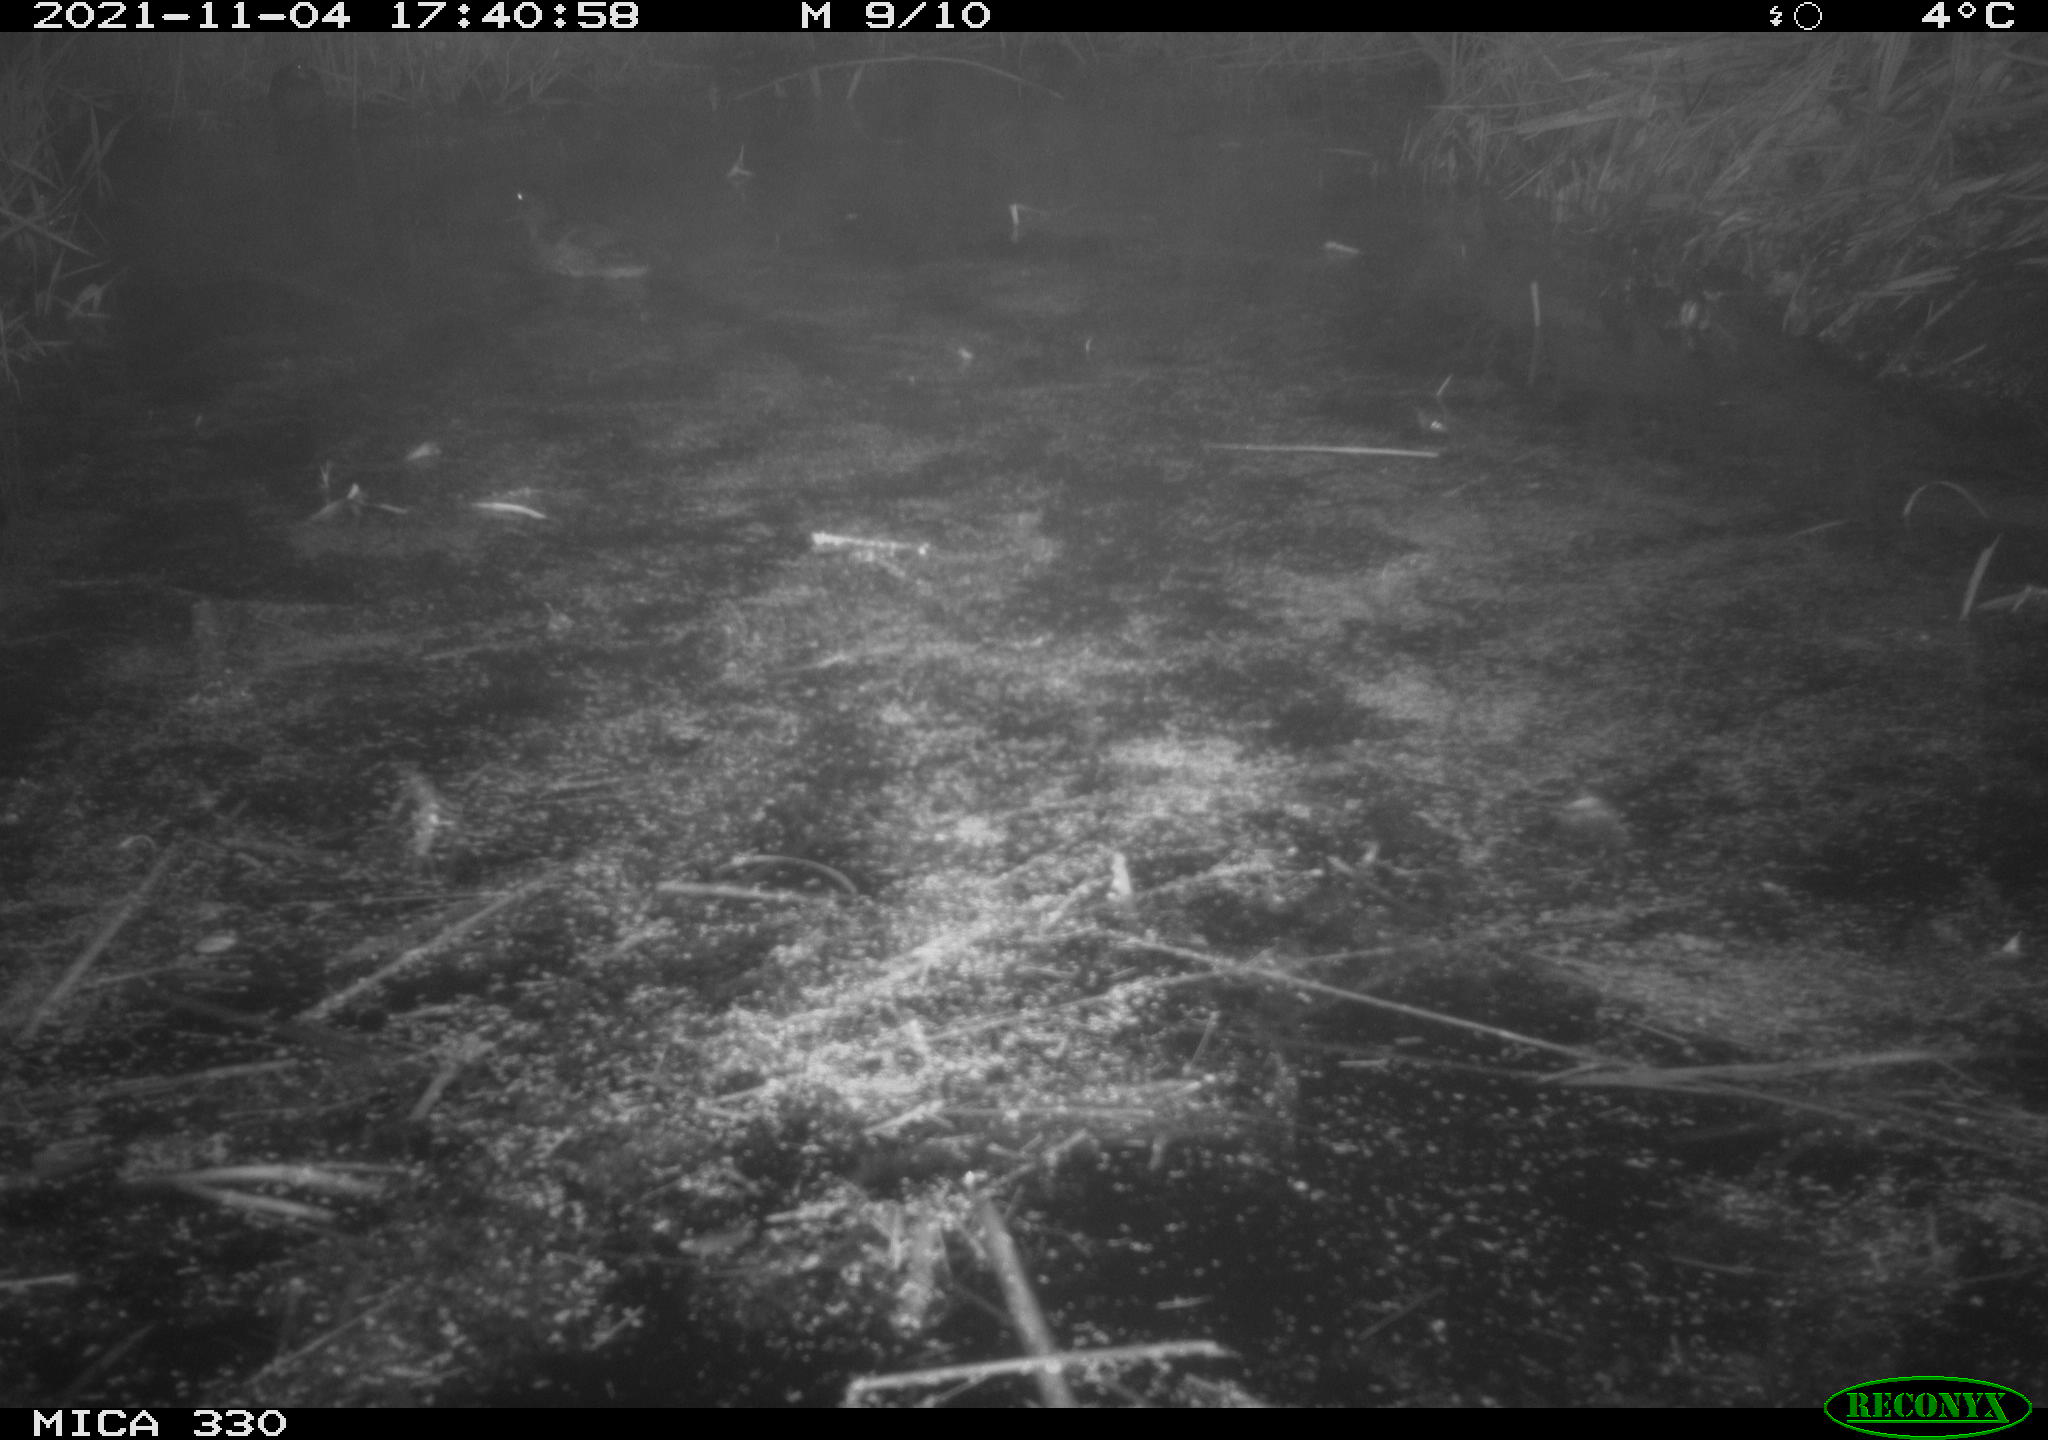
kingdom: Animalia
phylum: Chordata
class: Aves
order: Anseriformes
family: Anatidae
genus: Anas
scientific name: Anas platyrhynchos
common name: Mallard
